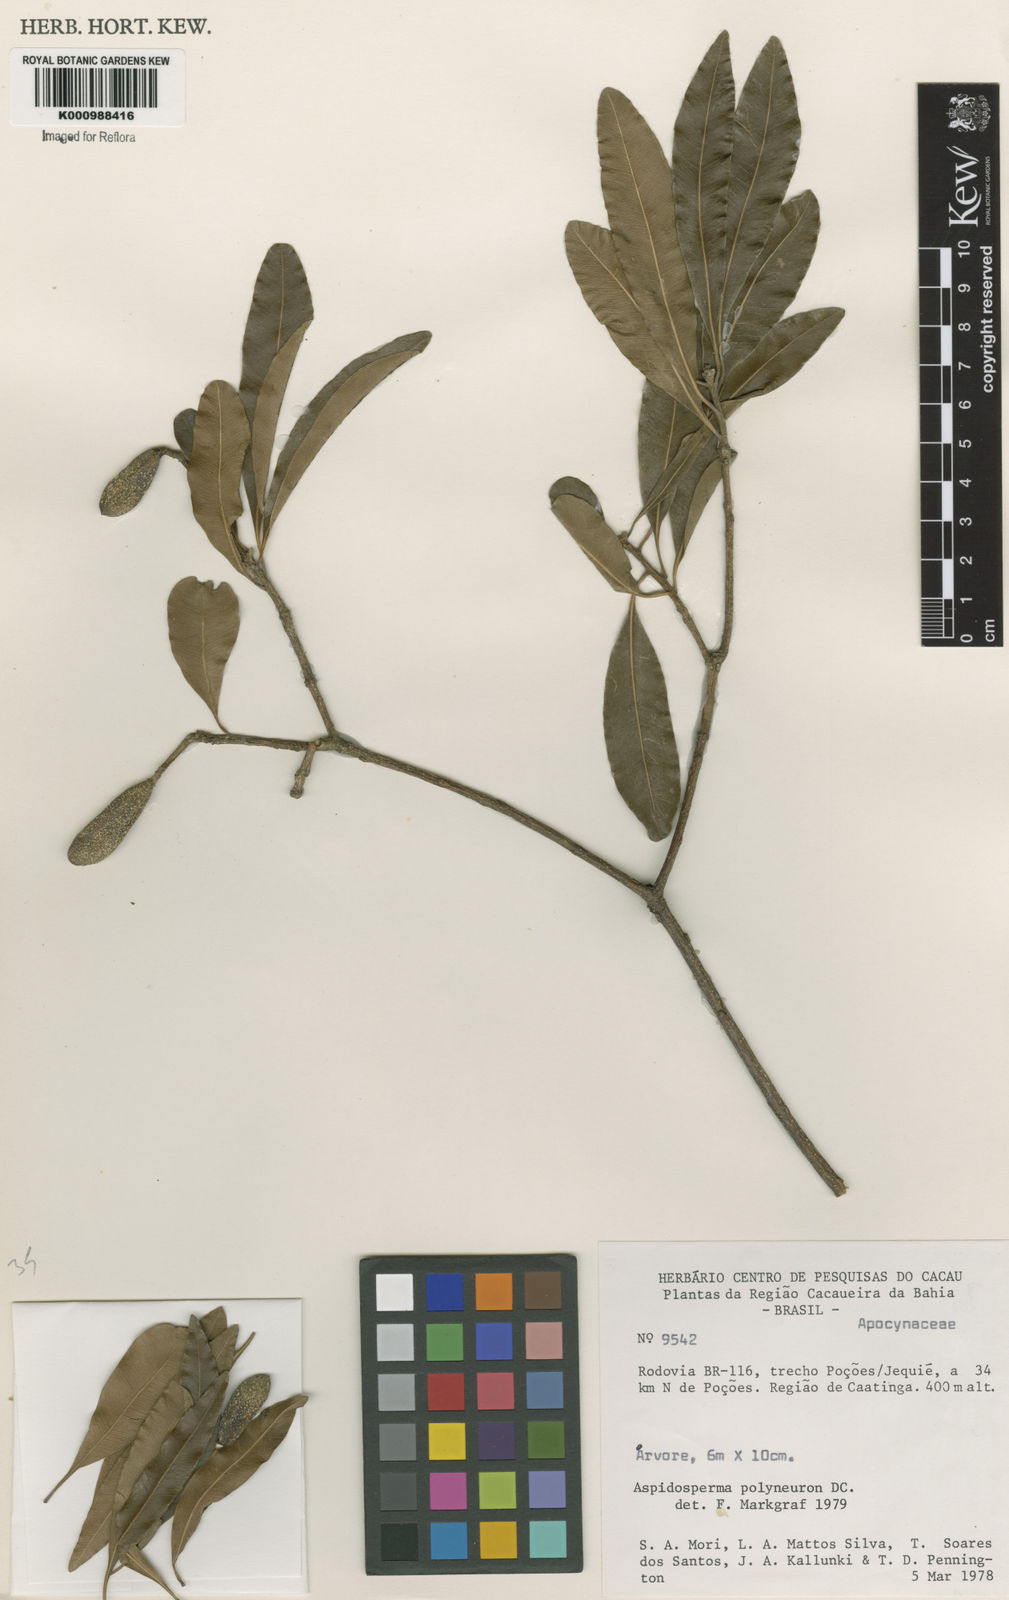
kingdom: Plantae
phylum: Tracheophyta
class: Magnoliopsida
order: Gentianales
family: Apocynaceae
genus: Aspidosperma
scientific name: Aspidosperma
